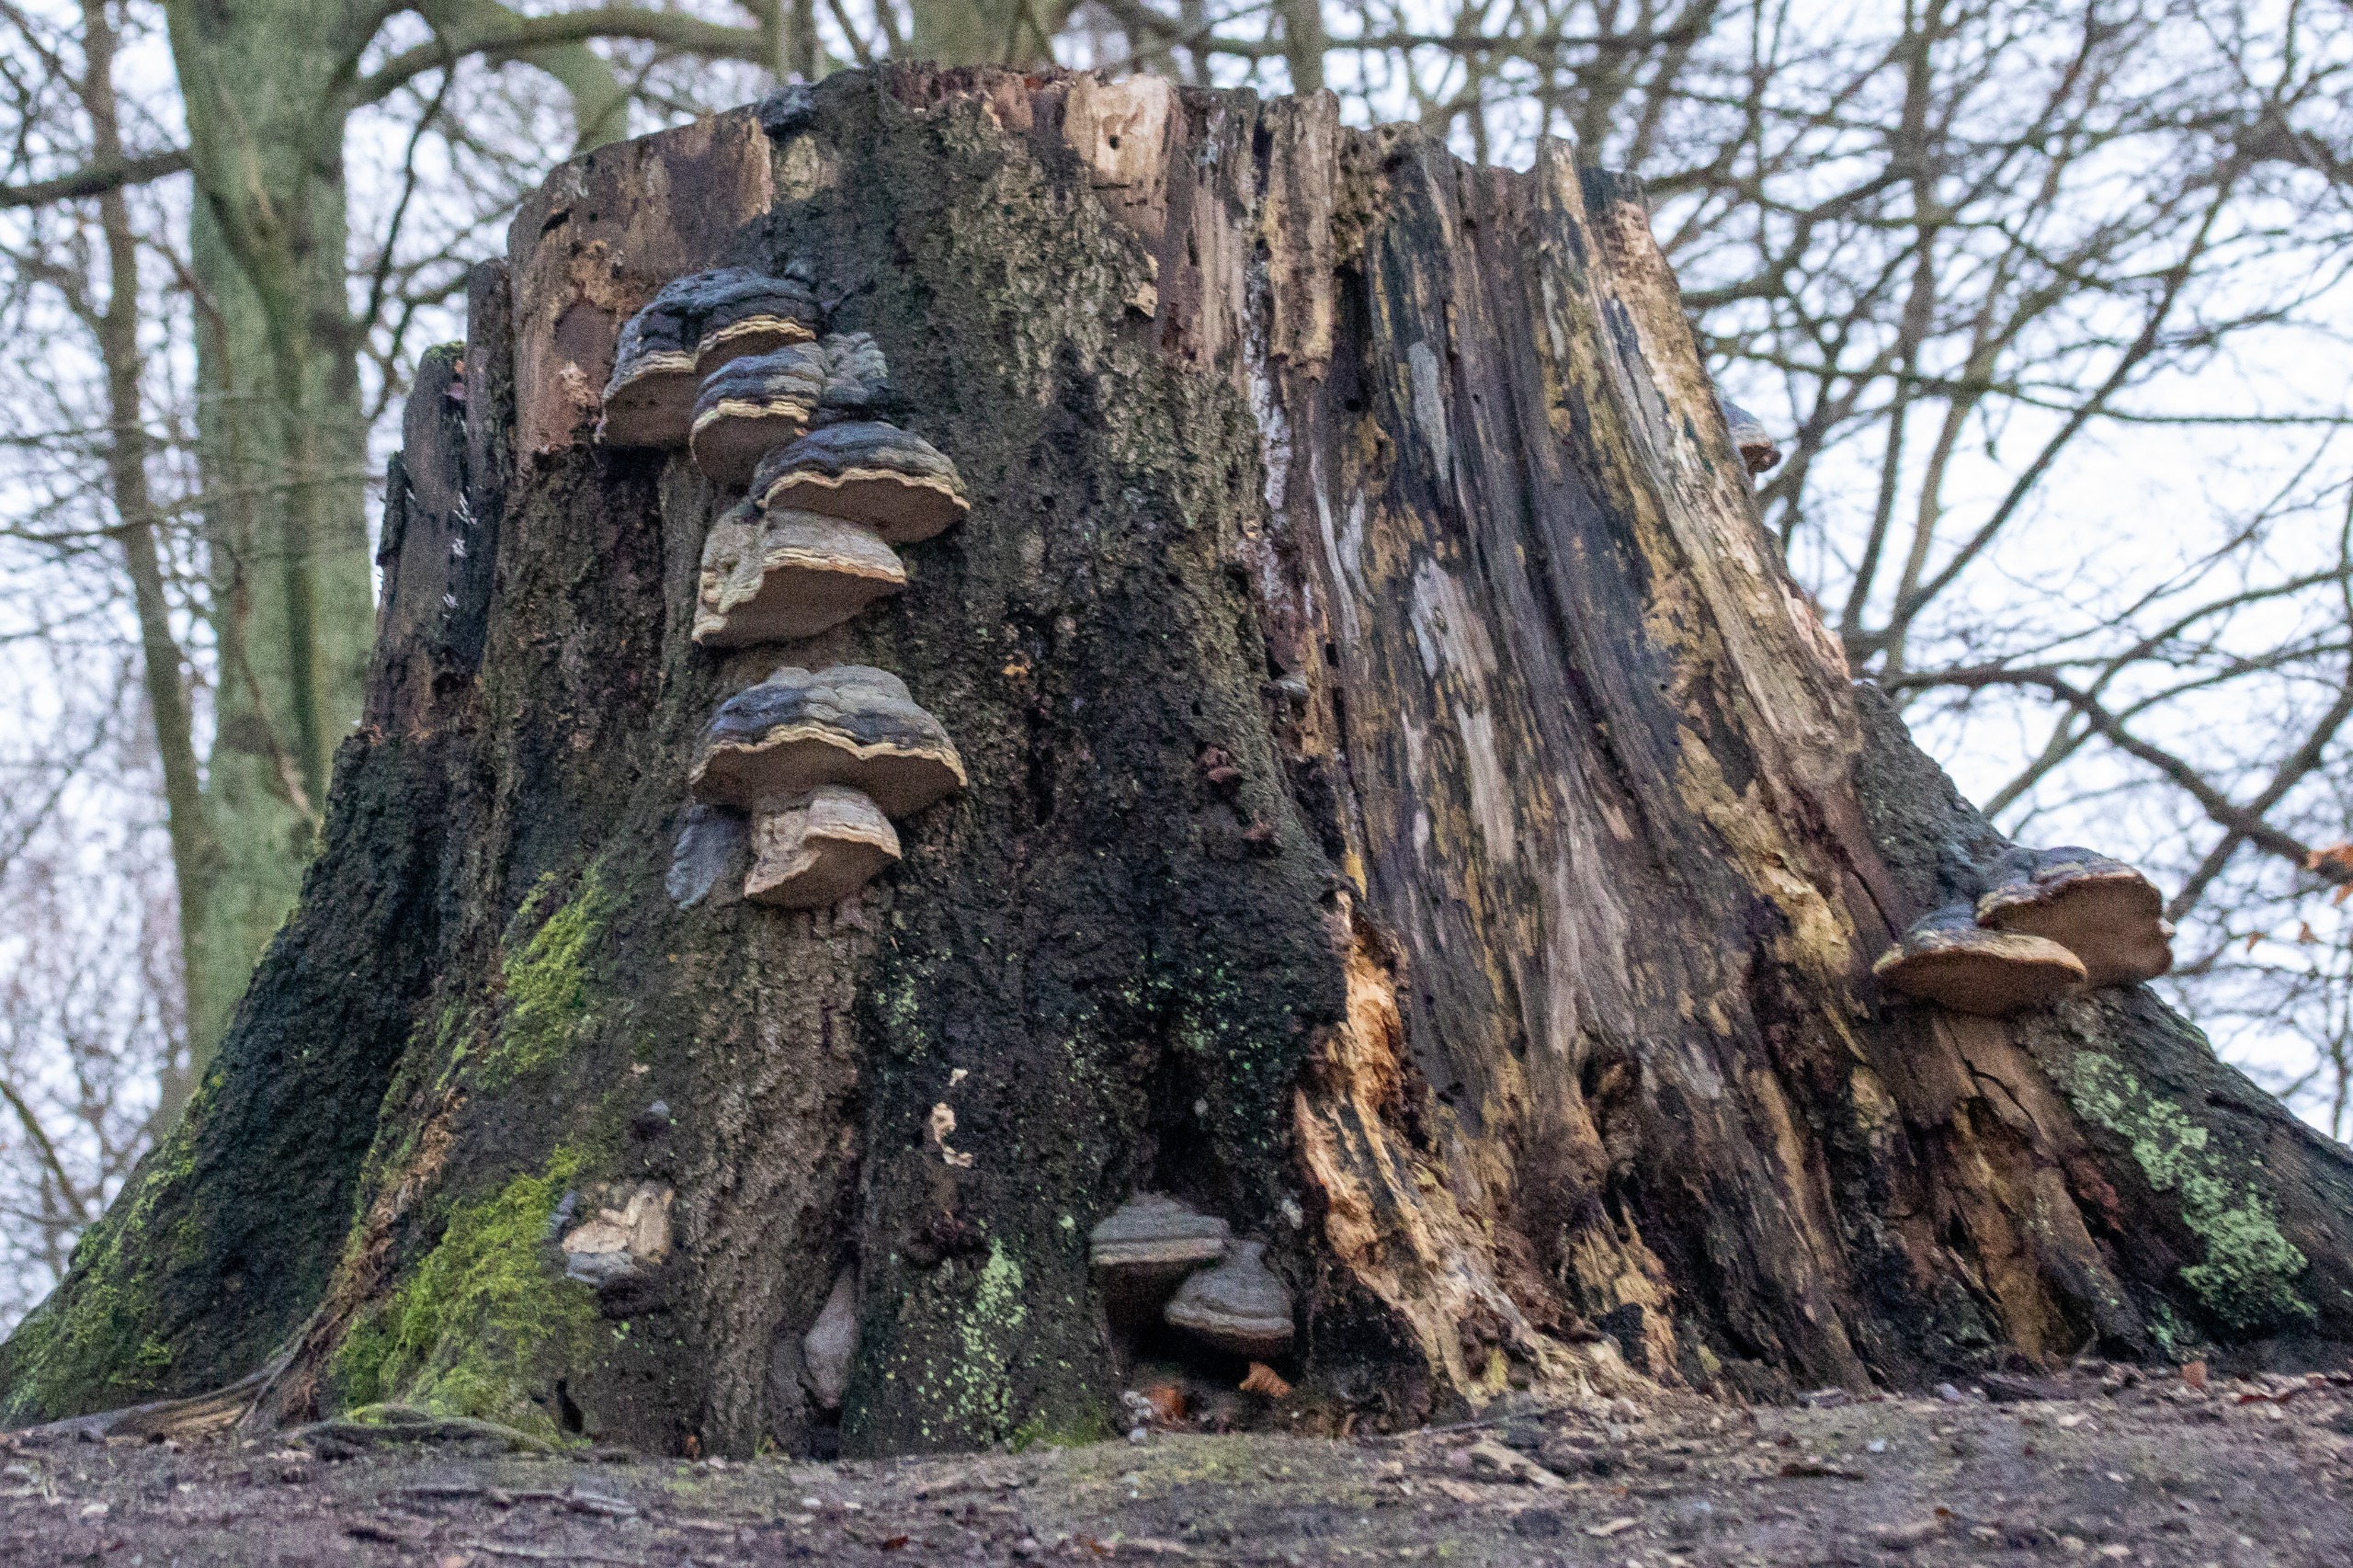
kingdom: Fungi
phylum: Basidiomycota
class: Agaricomycetes
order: Polyporales
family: Polyporaceae
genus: Fomes
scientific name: Fomes fomentarius
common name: Tøndersvamp
